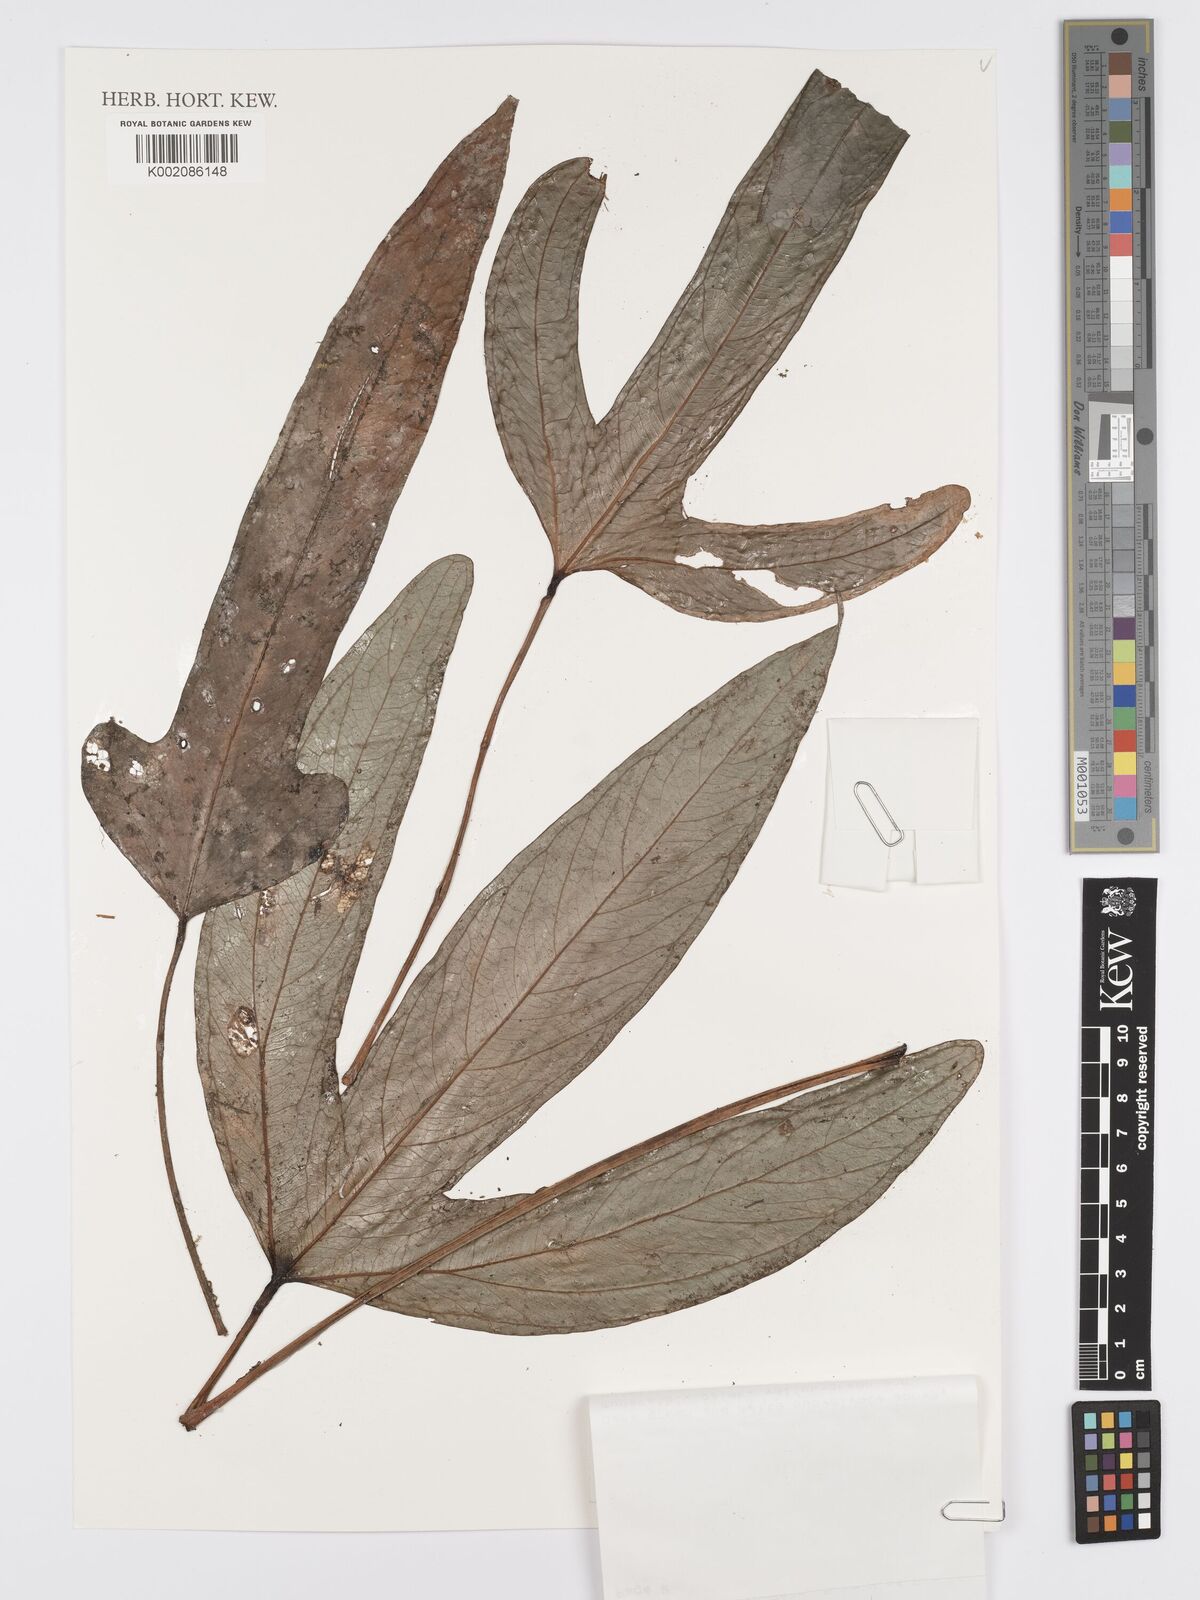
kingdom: Plantae
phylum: Tracheophyta
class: Liliopsida
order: Alismatales
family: Araceae
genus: Anthurium
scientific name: Anthurium furcatum
